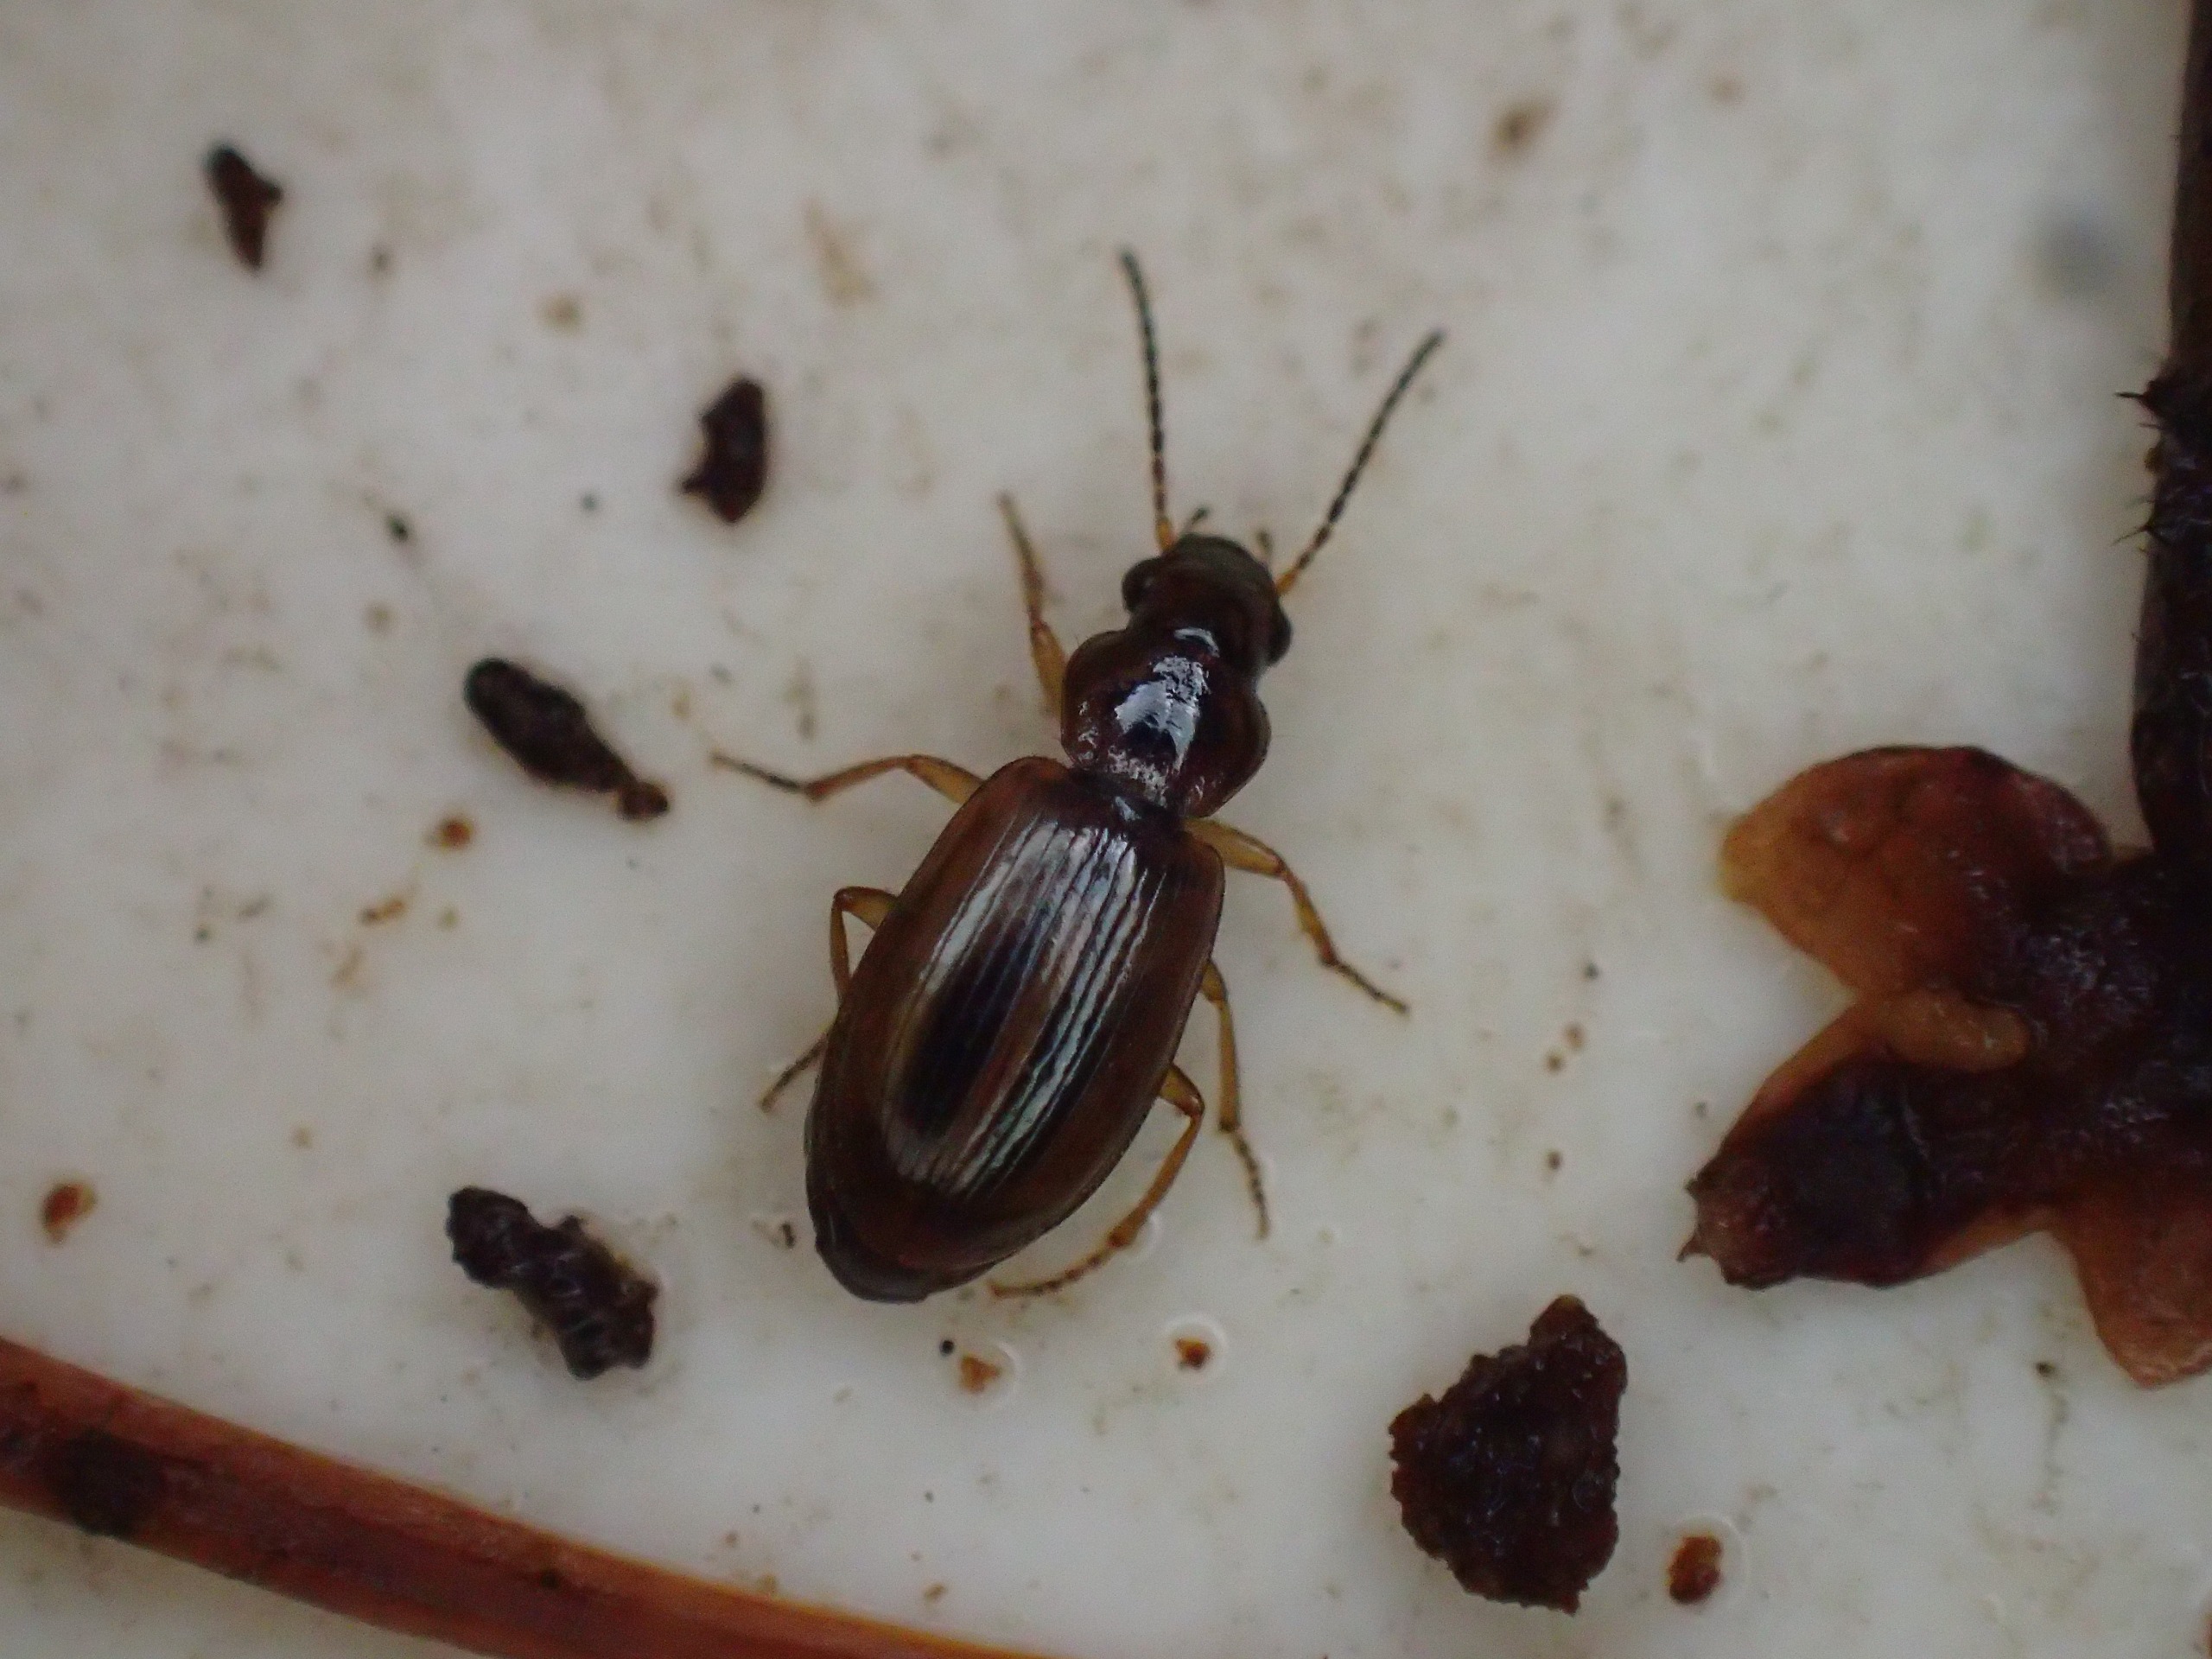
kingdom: Animalia
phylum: Arthropoda
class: Insecta
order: Coleoptera
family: Carabidae
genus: Dicheirotrichus
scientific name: Dicheirotrichus placidus
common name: Kærvinterløber
